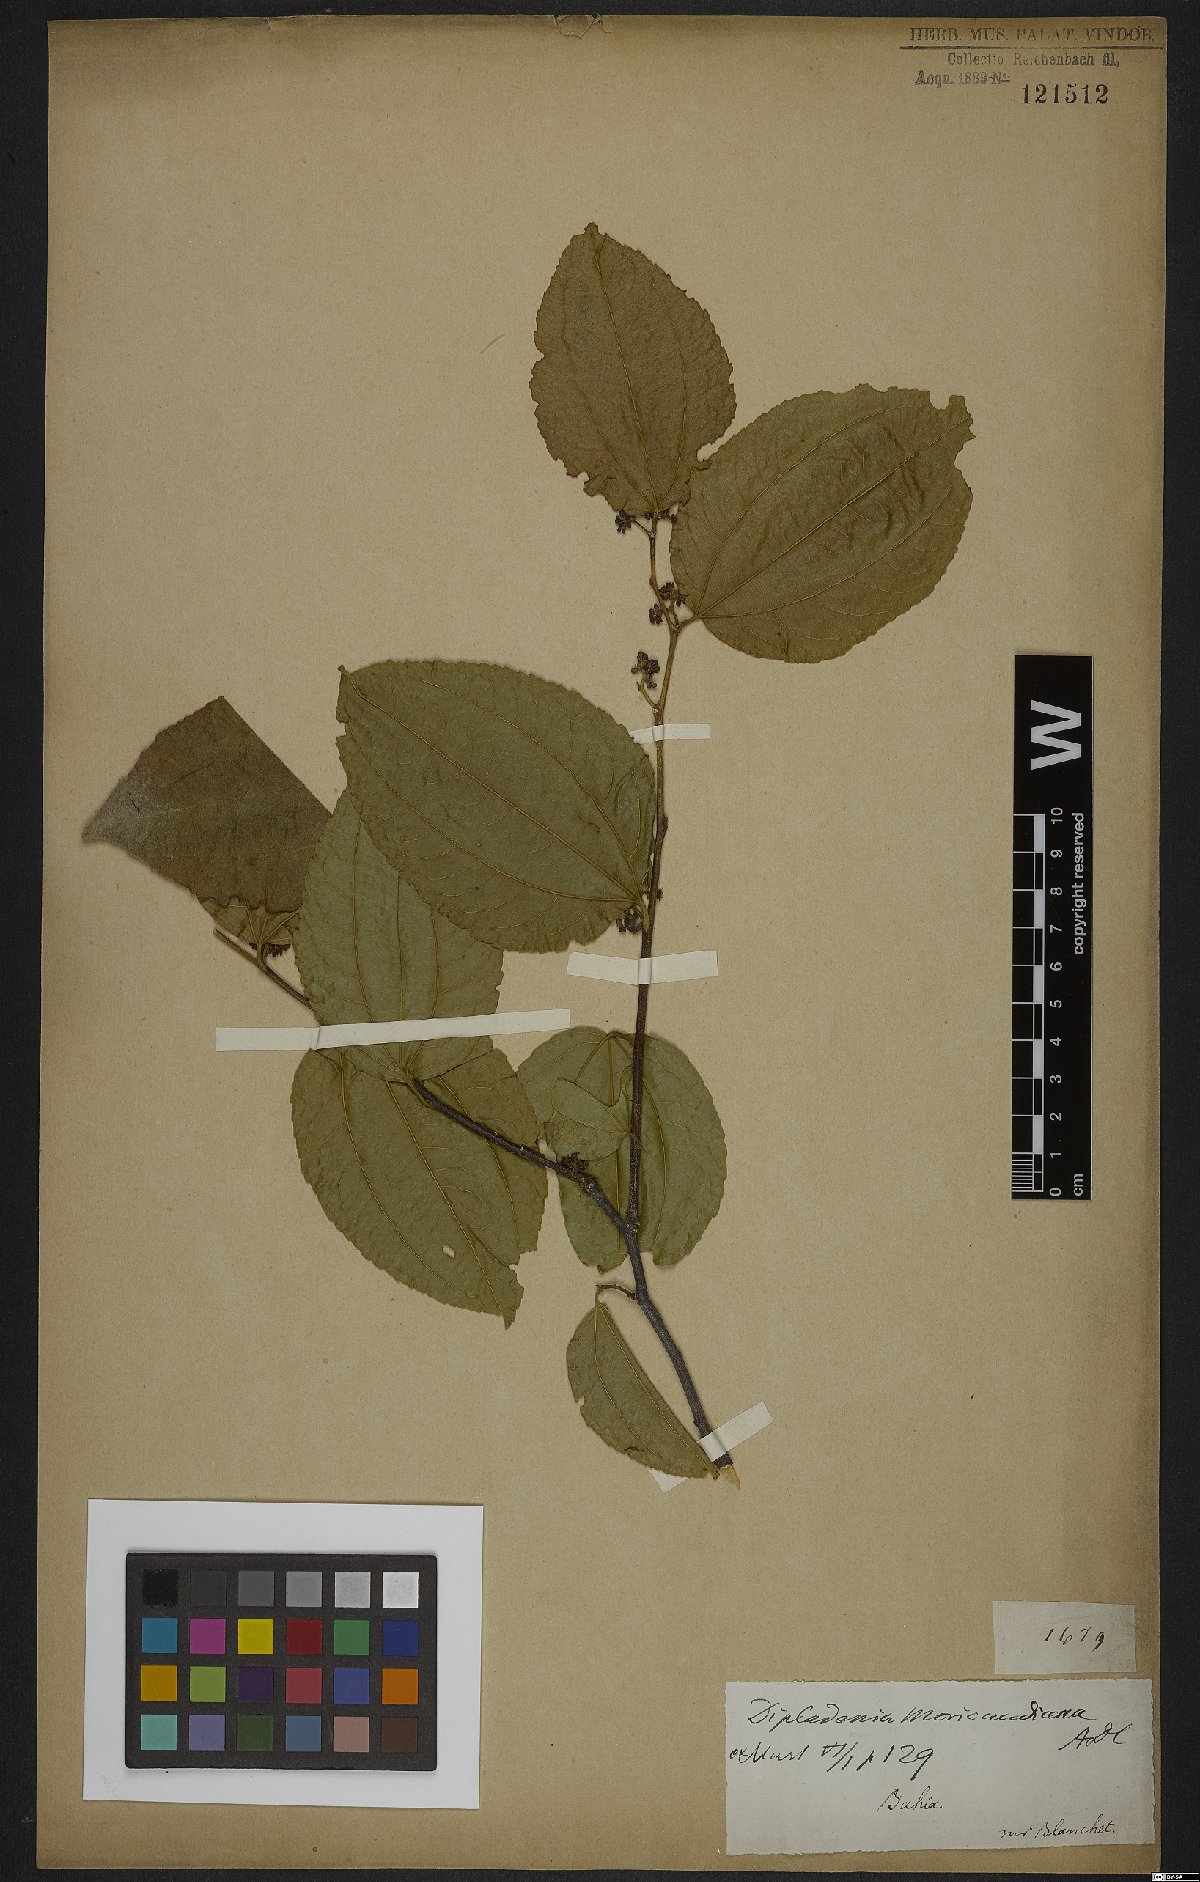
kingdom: Plantae
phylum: Tracheophyta
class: Magnoliopsida
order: Gentianales
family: Apocynaceae
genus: Mandevilla
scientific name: Mandevilla moricandiana
